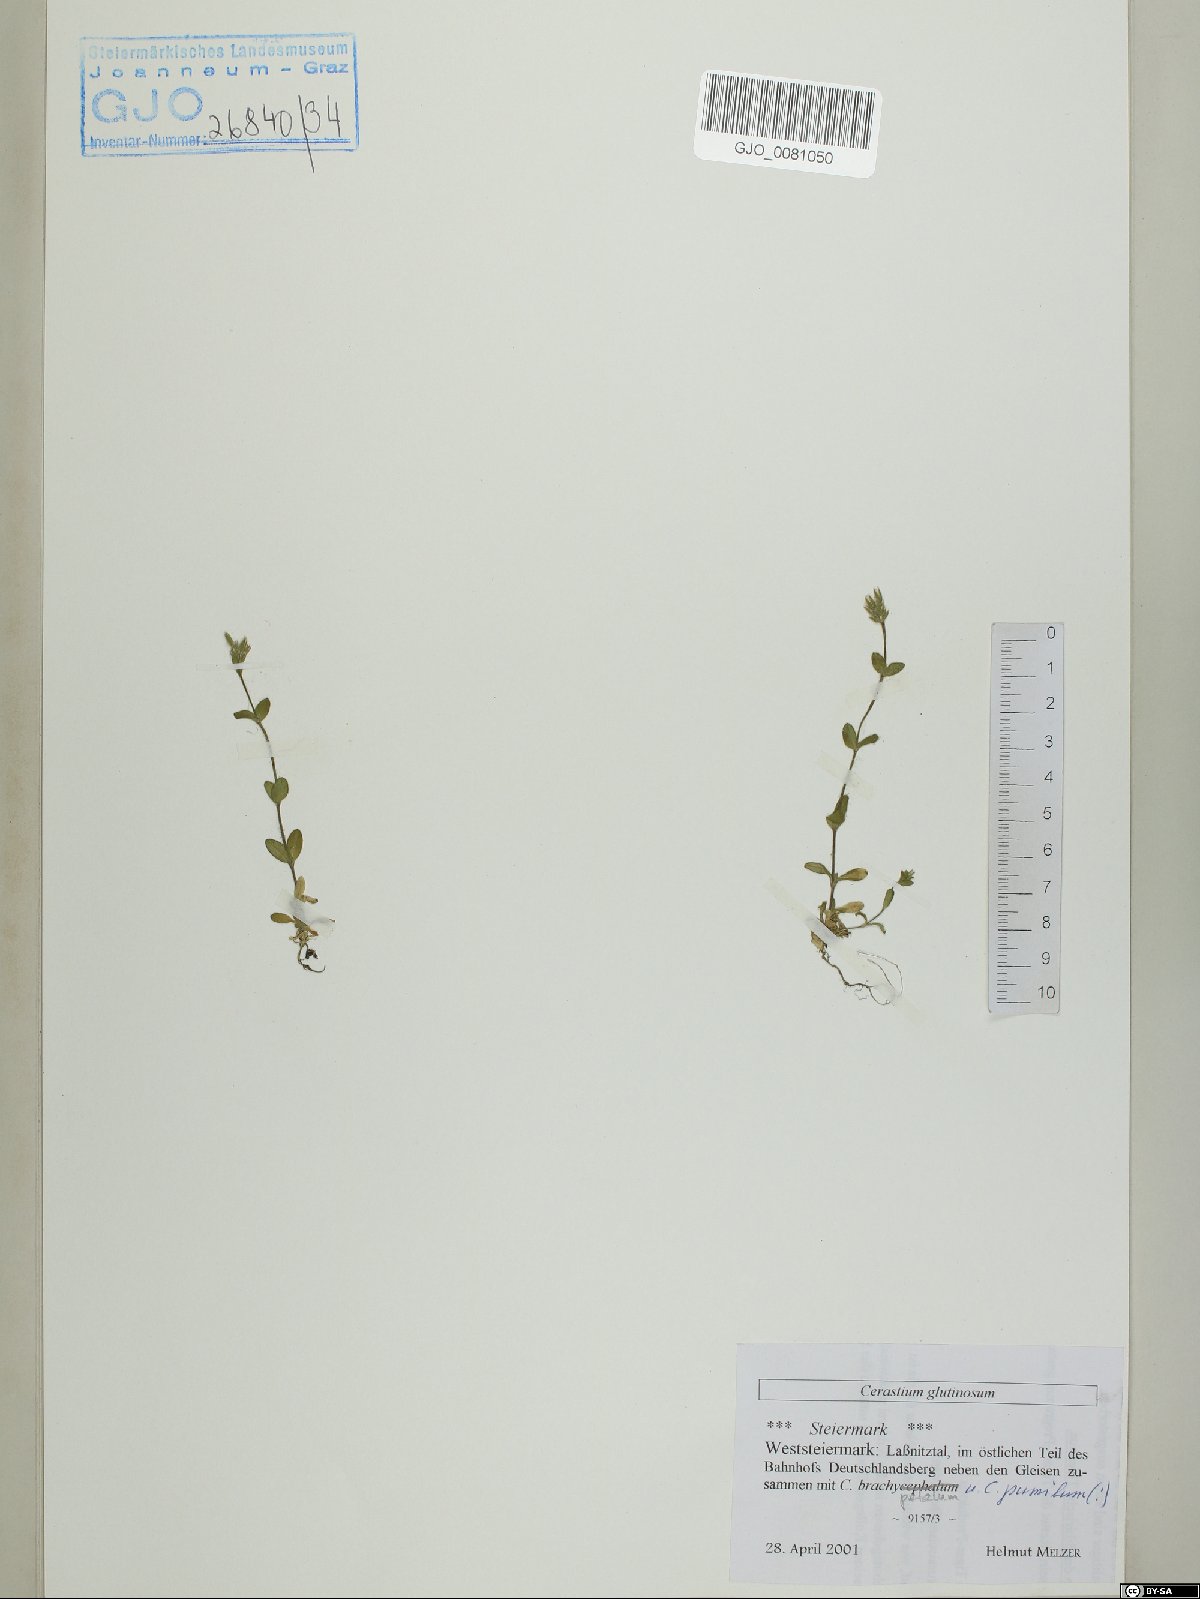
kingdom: Plantae
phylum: Tracheophyta
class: Magnoliopsida
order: Caryophyllales
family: Caryophyllaceae
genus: Cerastium
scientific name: Cerastium glutinosum
